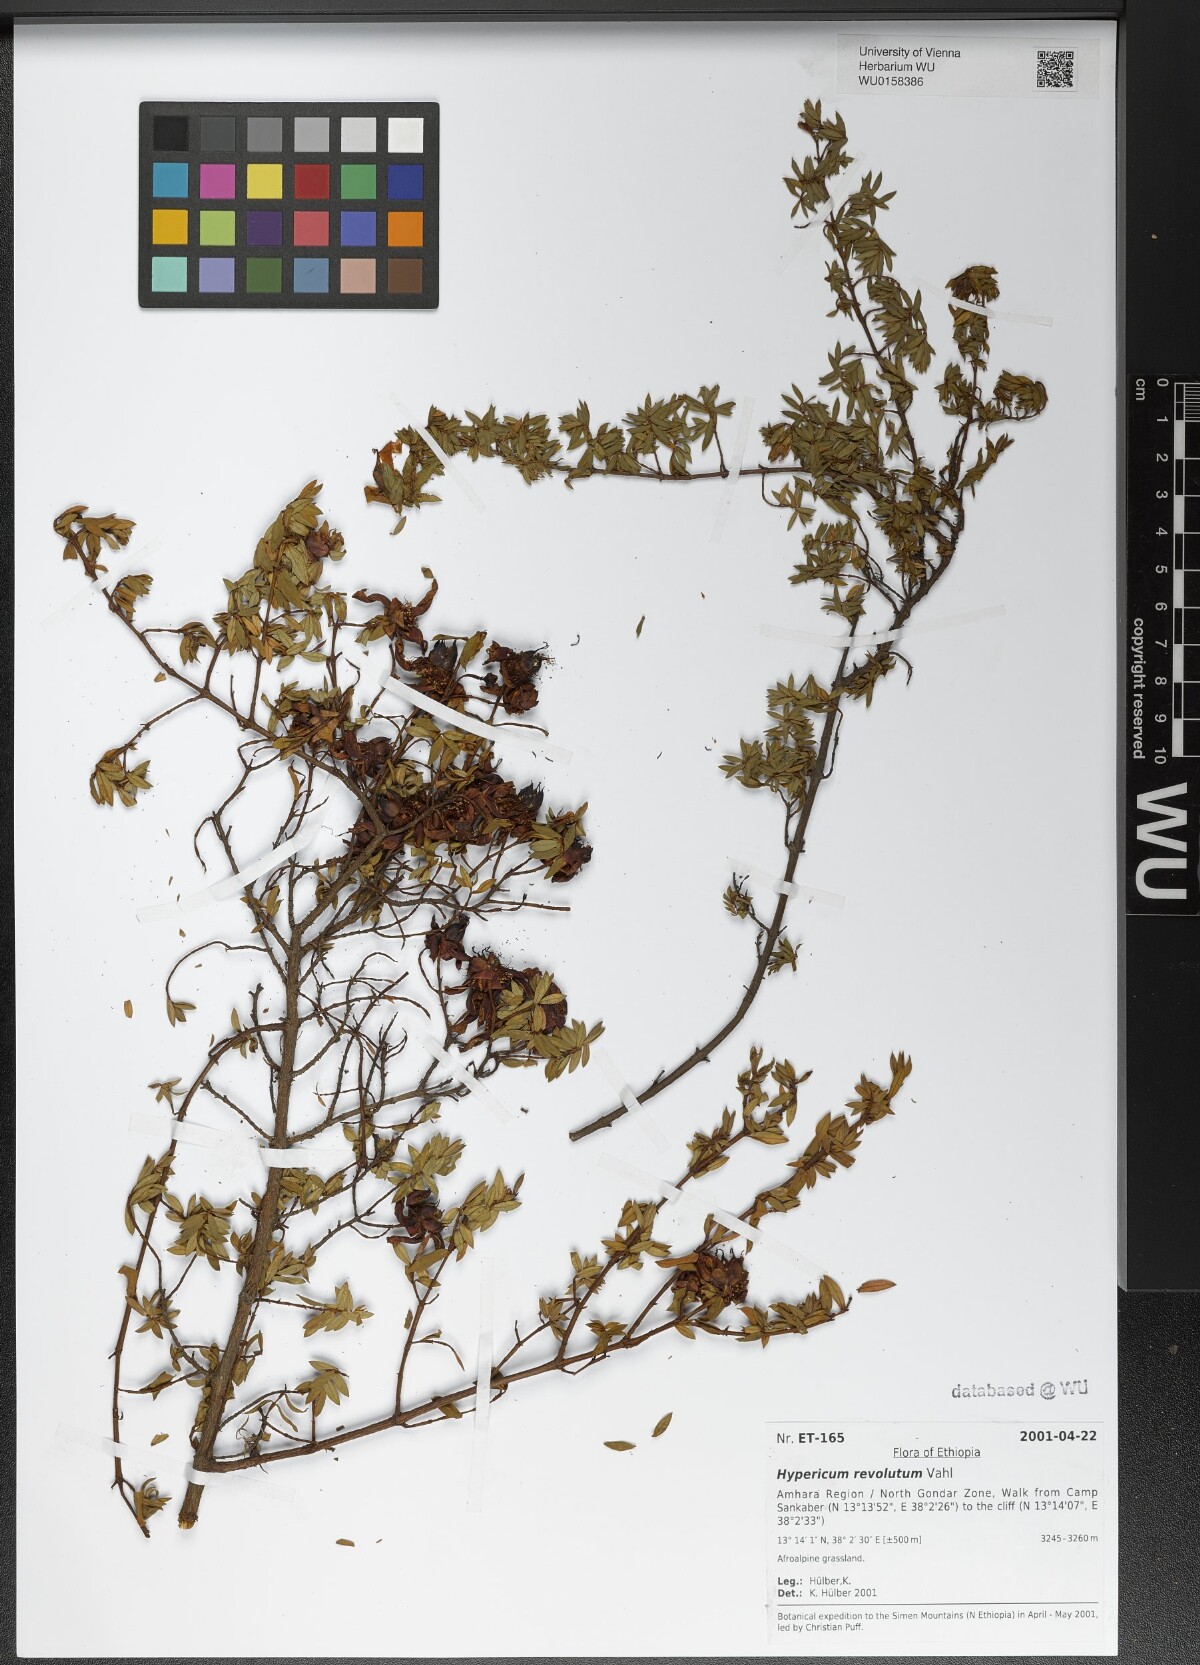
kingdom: Plantae
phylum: Tracheophyta
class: Magnoliopsida
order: Malpighiales
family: Hypericaceae
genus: Hypericum
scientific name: Hypericum revolutum
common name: Curry bush
